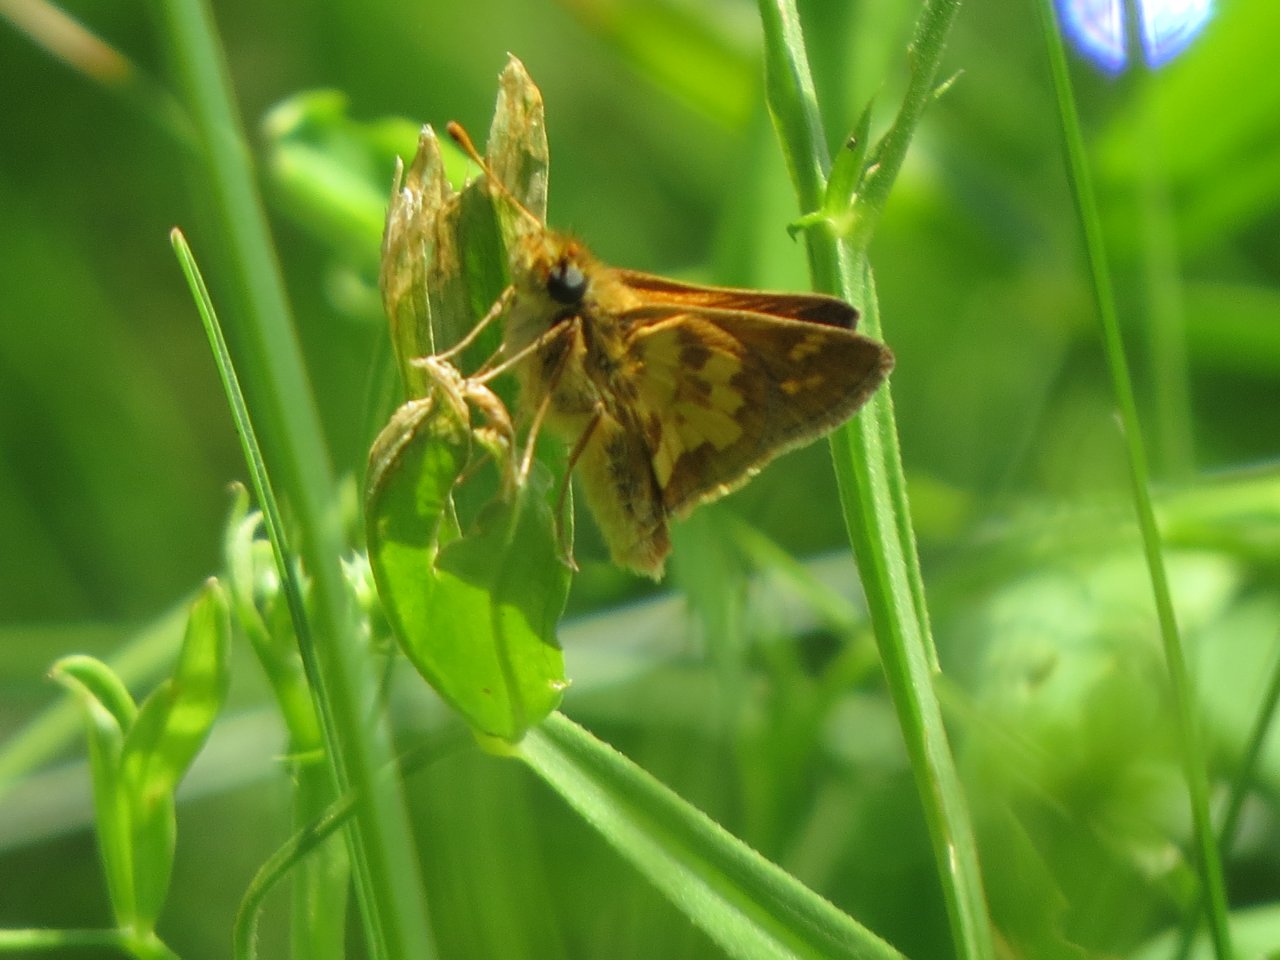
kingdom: Animalia
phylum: Arthropoda
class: Insecta
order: Lepidoptera
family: Hesperiidae
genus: Polites
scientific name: Polites coras
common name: Peck's Skipper
